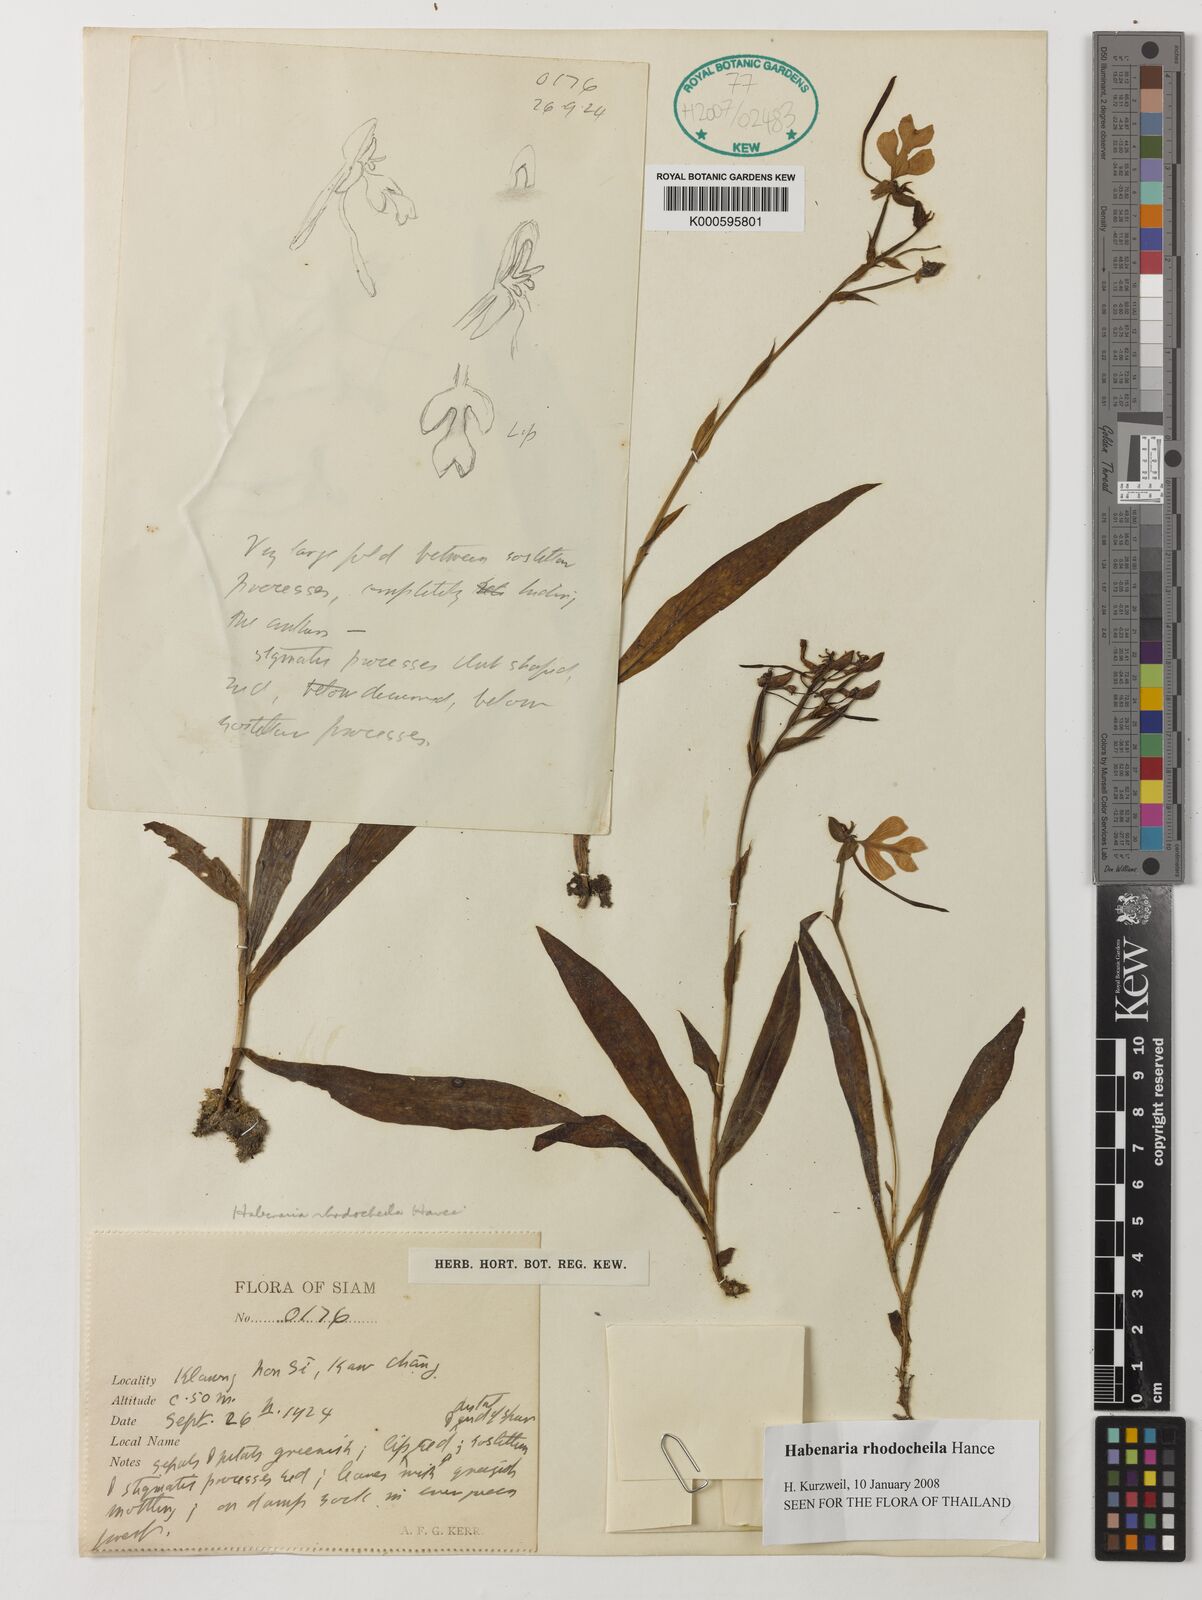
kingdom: Plantae
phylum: Tracheophyta
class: Liliopsida
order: Asparagales
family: Orchidaceae
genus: Habenaria
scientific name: Habenaria rhodocheila
